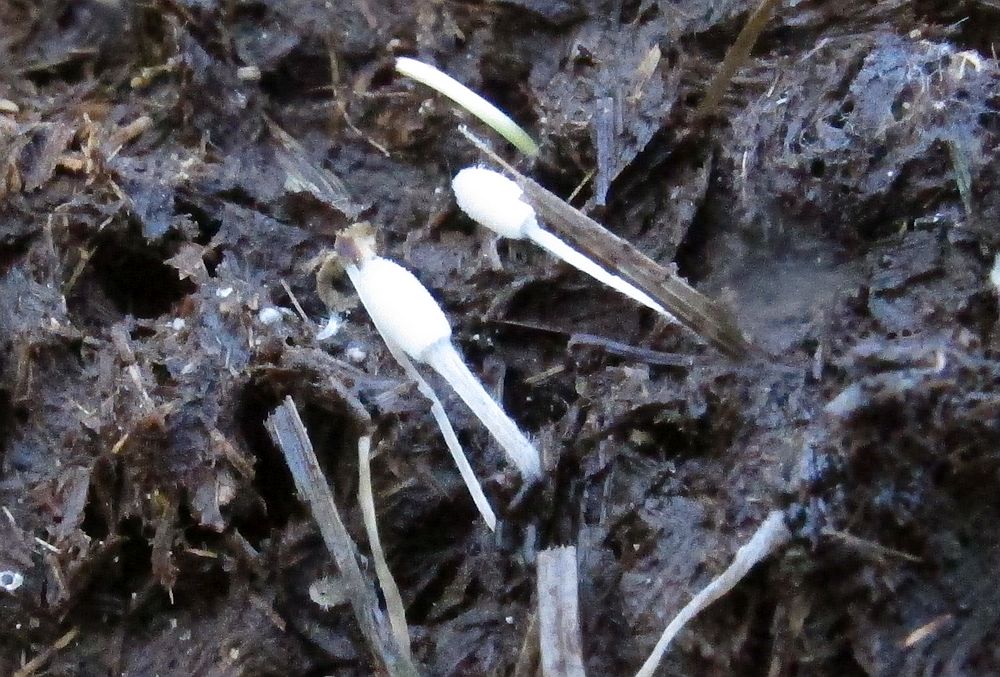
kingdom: Fungi
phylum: Basidiomycota
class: Agaricomycetes
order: Agaricales
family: Psathyrellaceae
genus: Coprinopsis
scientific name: Coprinopsis stercorea
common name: pjusket blækhat
